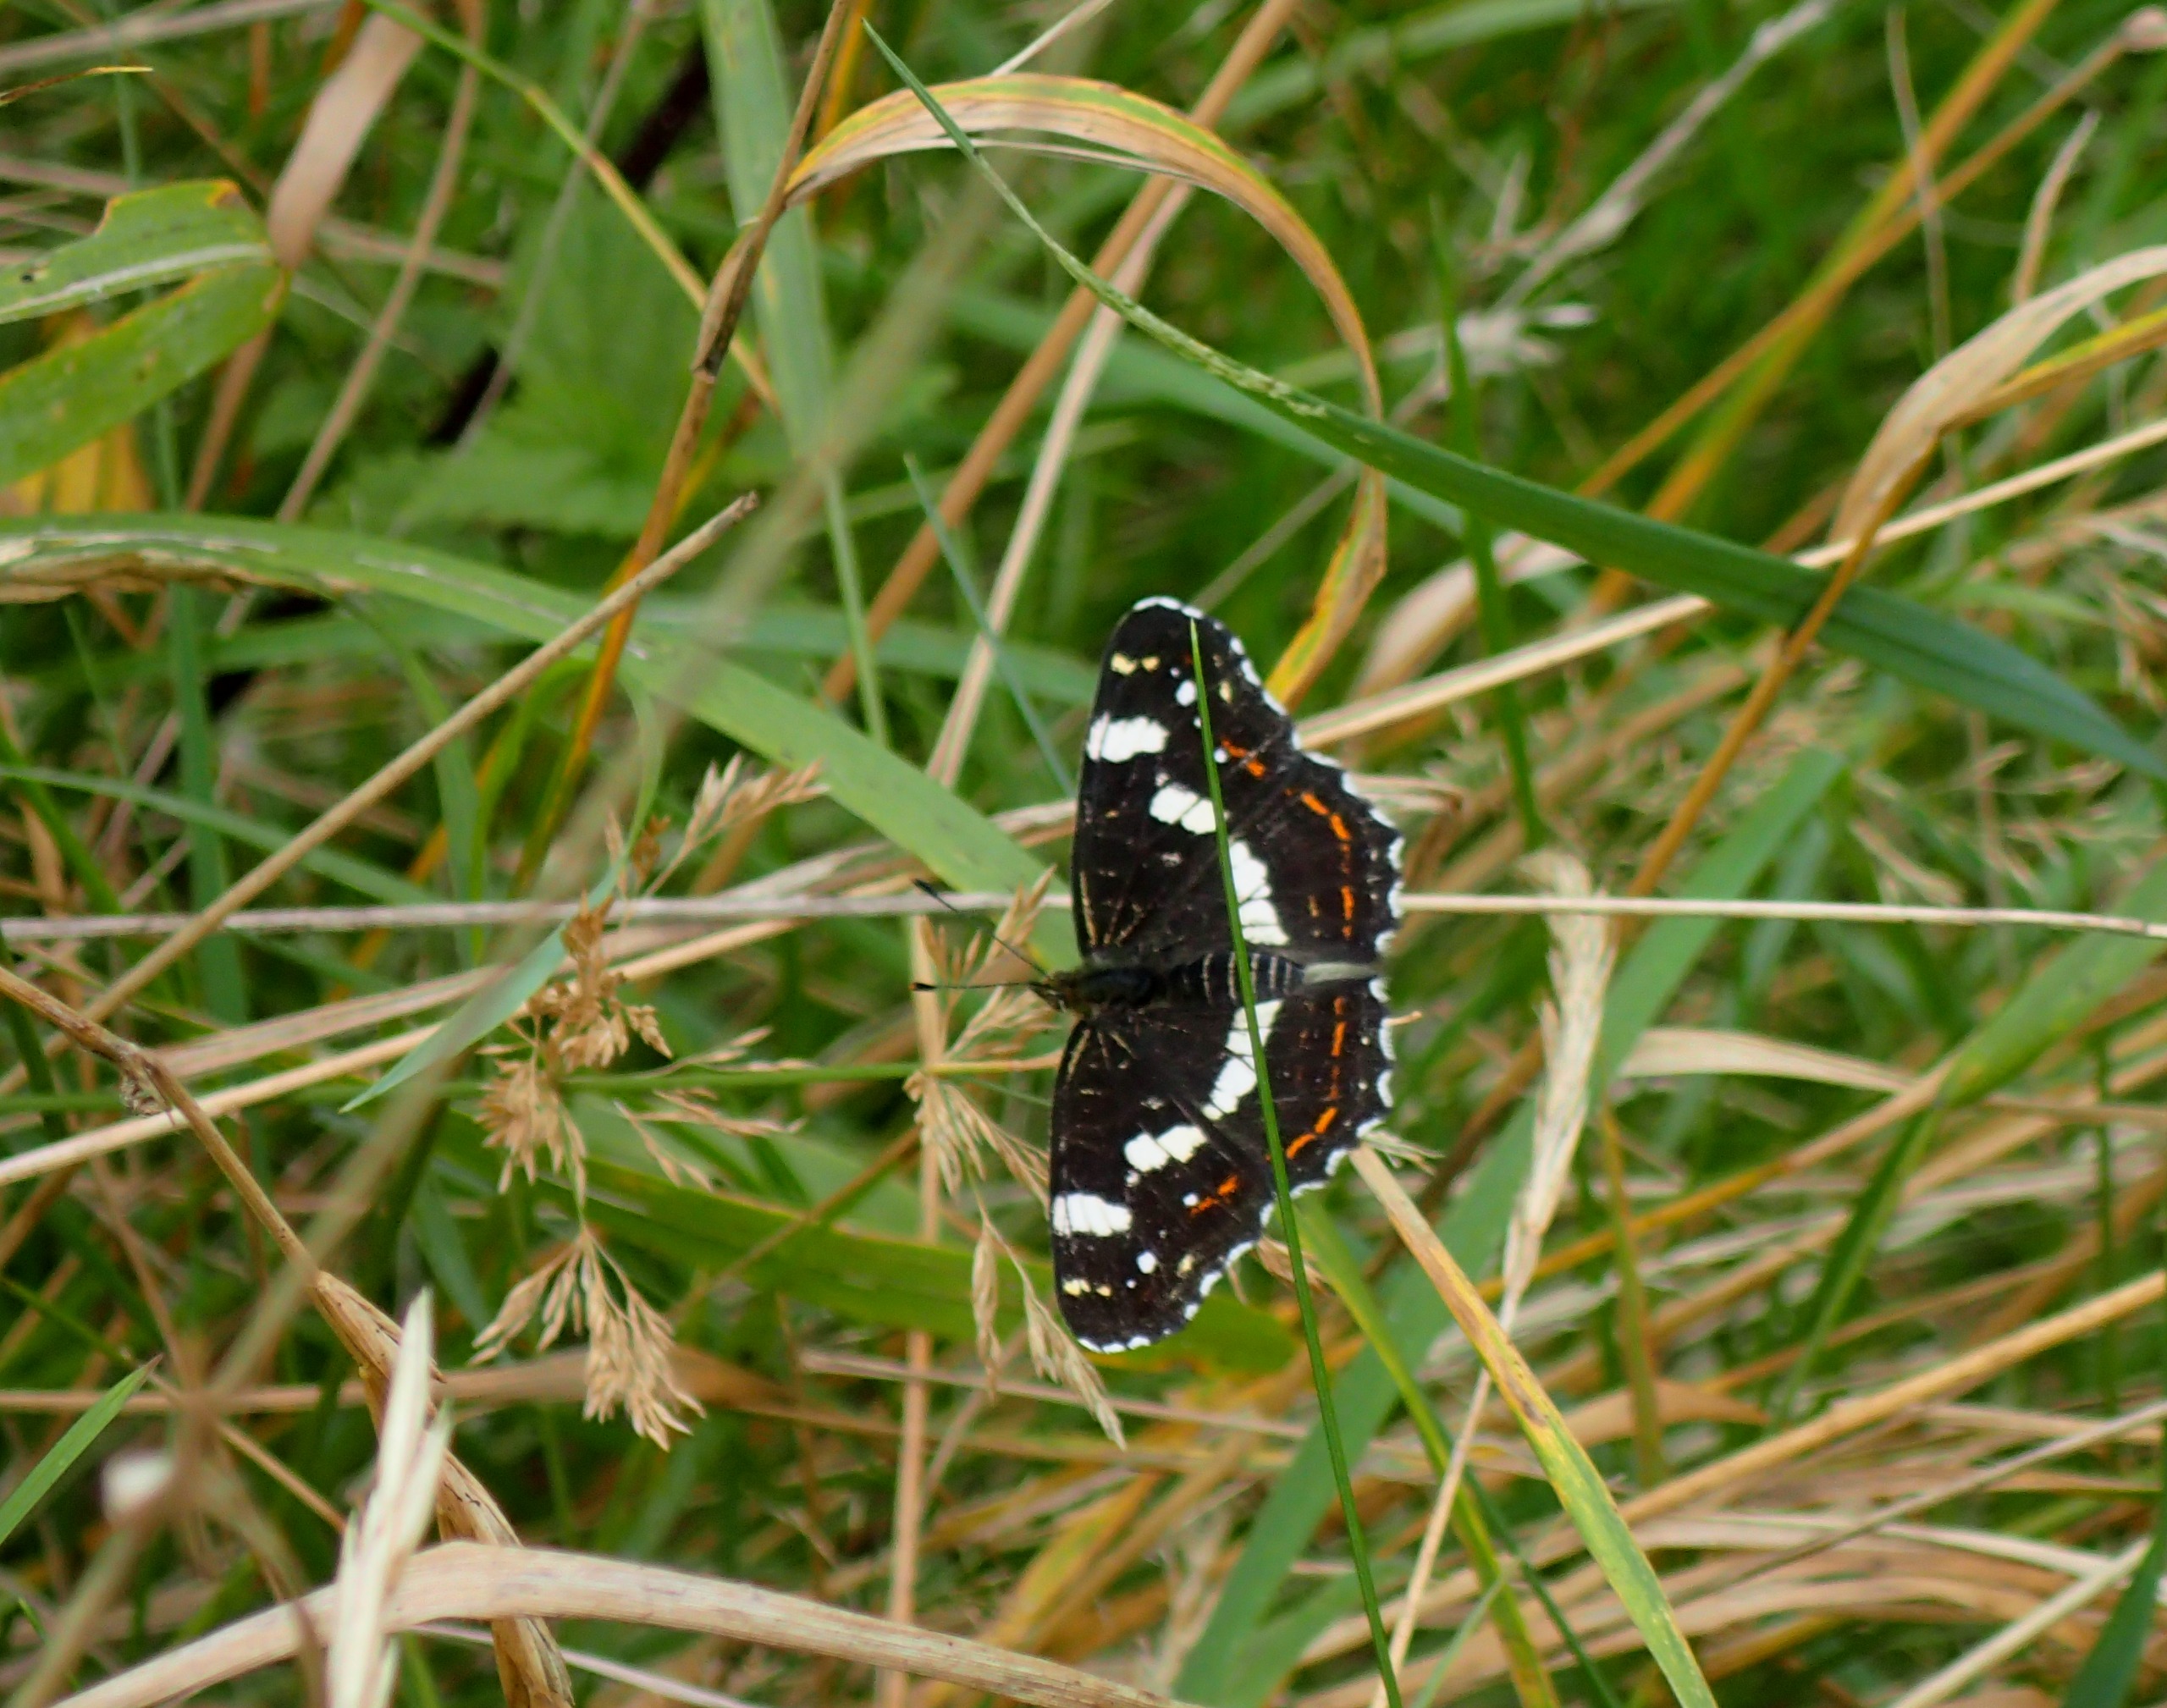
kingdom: Animalia
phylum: Arthropoda
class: Insecta
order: Lepidoptera
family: Nymphalidae
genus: Araschnia
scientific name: Araschnia levana
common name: Nældesommerfugl
